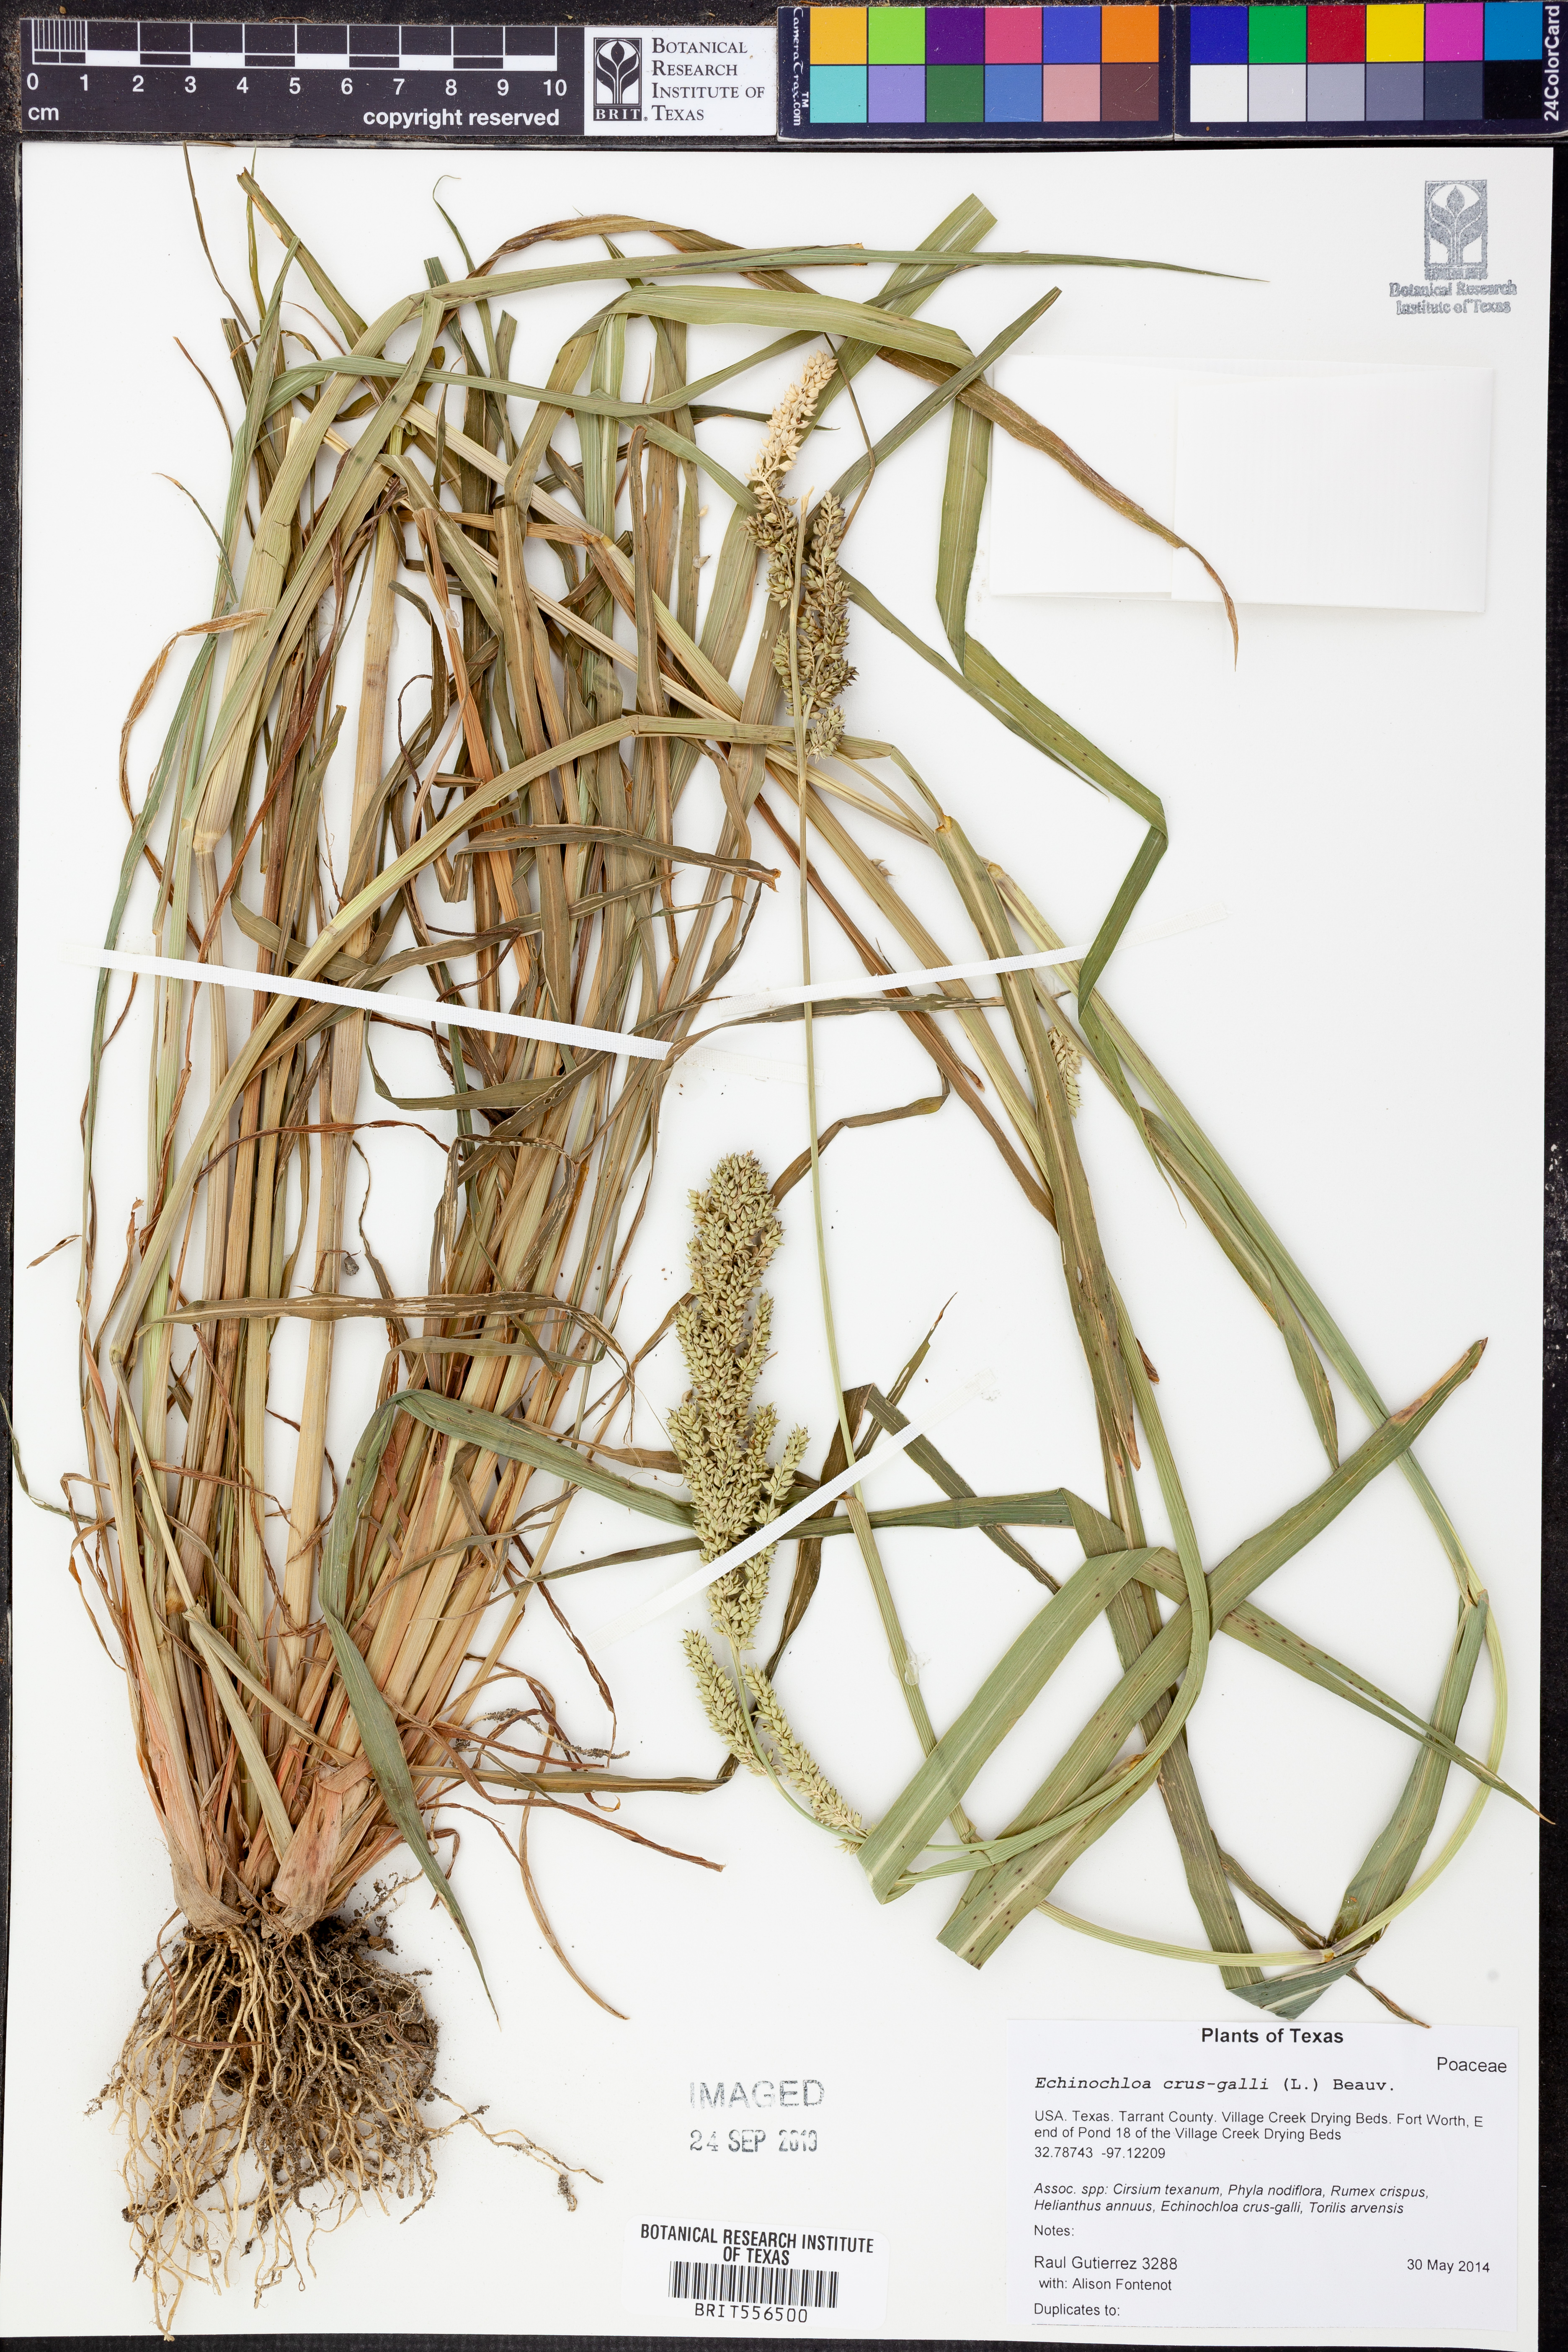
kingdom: Plantae
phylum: Tracheophyta
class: Liliopsida
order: Poales
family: Poaceae
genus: Echinochloa
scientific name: Echinochloa crus-galli
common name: Cockspur
